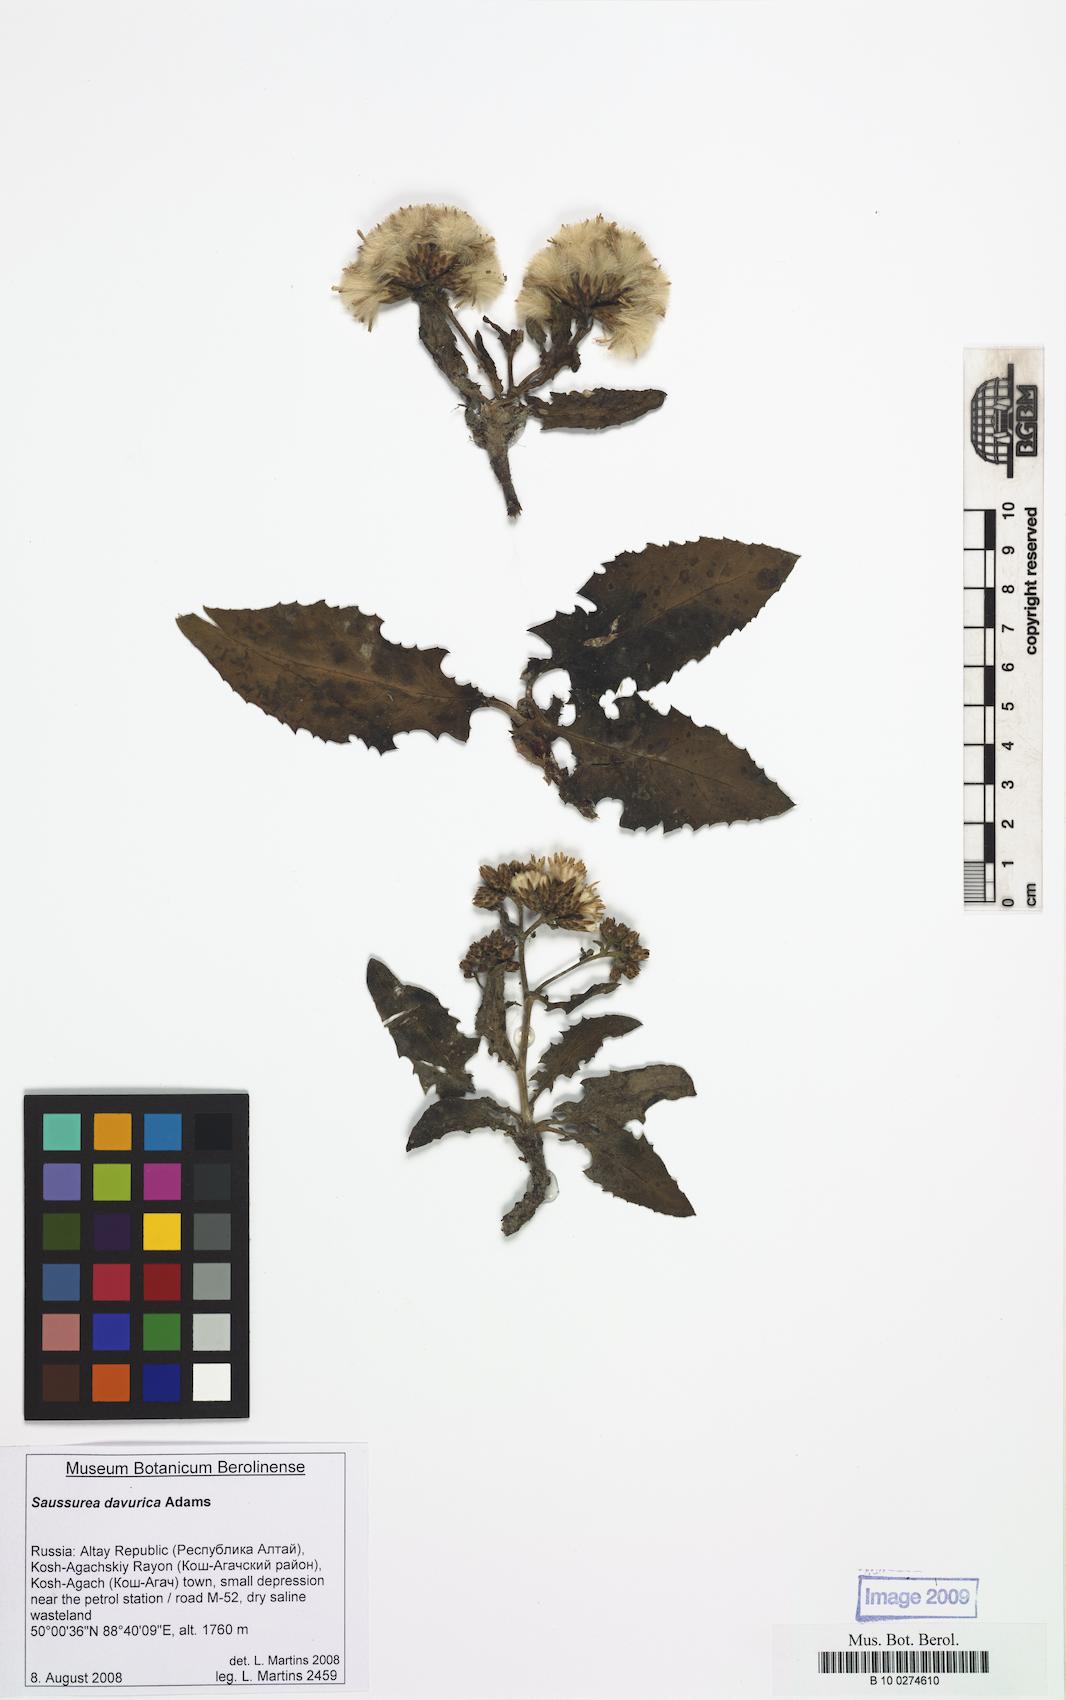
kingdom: Plantae
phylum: Tracheophyta
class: Magnoliopsida
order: Asterales
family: Asteraceae
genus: Saussurea
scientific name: Saussurea davurica
